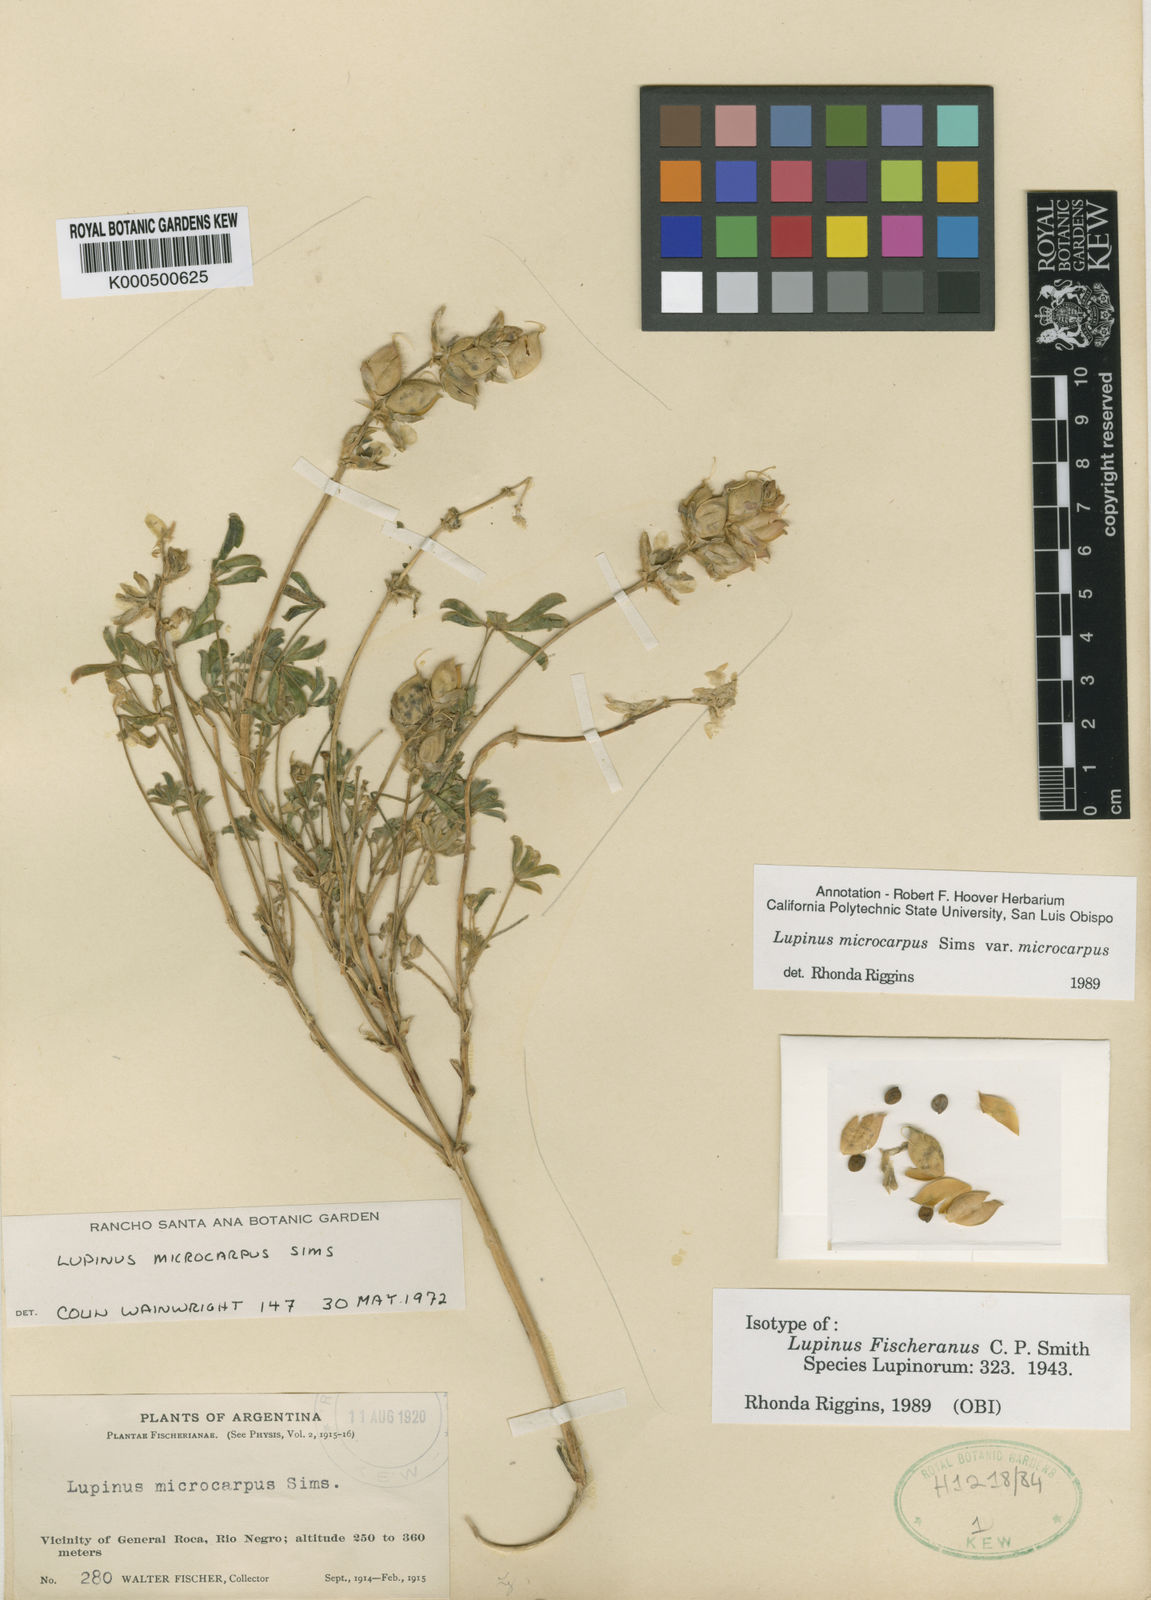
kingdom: Plantae
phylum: Tracheophyta
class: Magnoliopsida
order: Fabales
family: Fabaceae
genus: Lupinus
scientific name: Lupinus microcarpus
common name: Chick lupine
